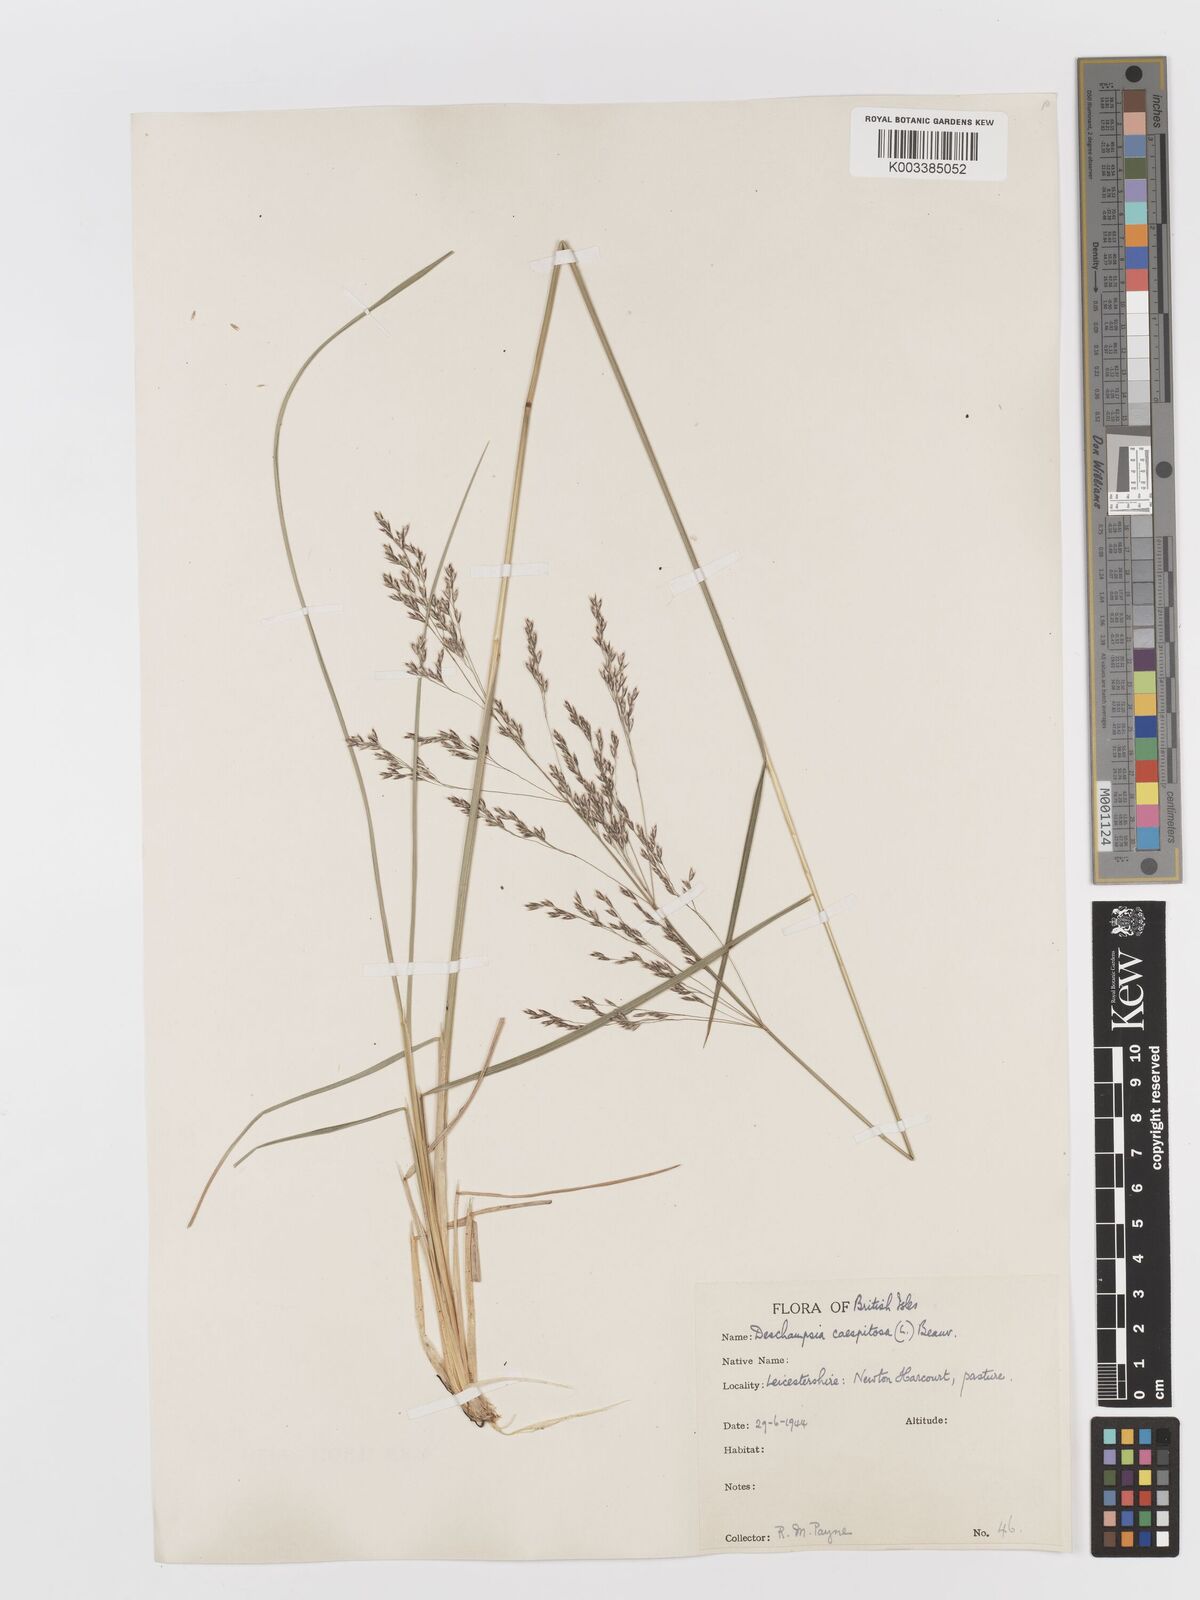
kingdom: Plantae
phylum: Tracheophyta
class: Liliopsida
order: Poales
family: Poaceae
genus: Deschampsia
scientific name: Deschampsia cespitosa
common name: Tufted hair-grass
